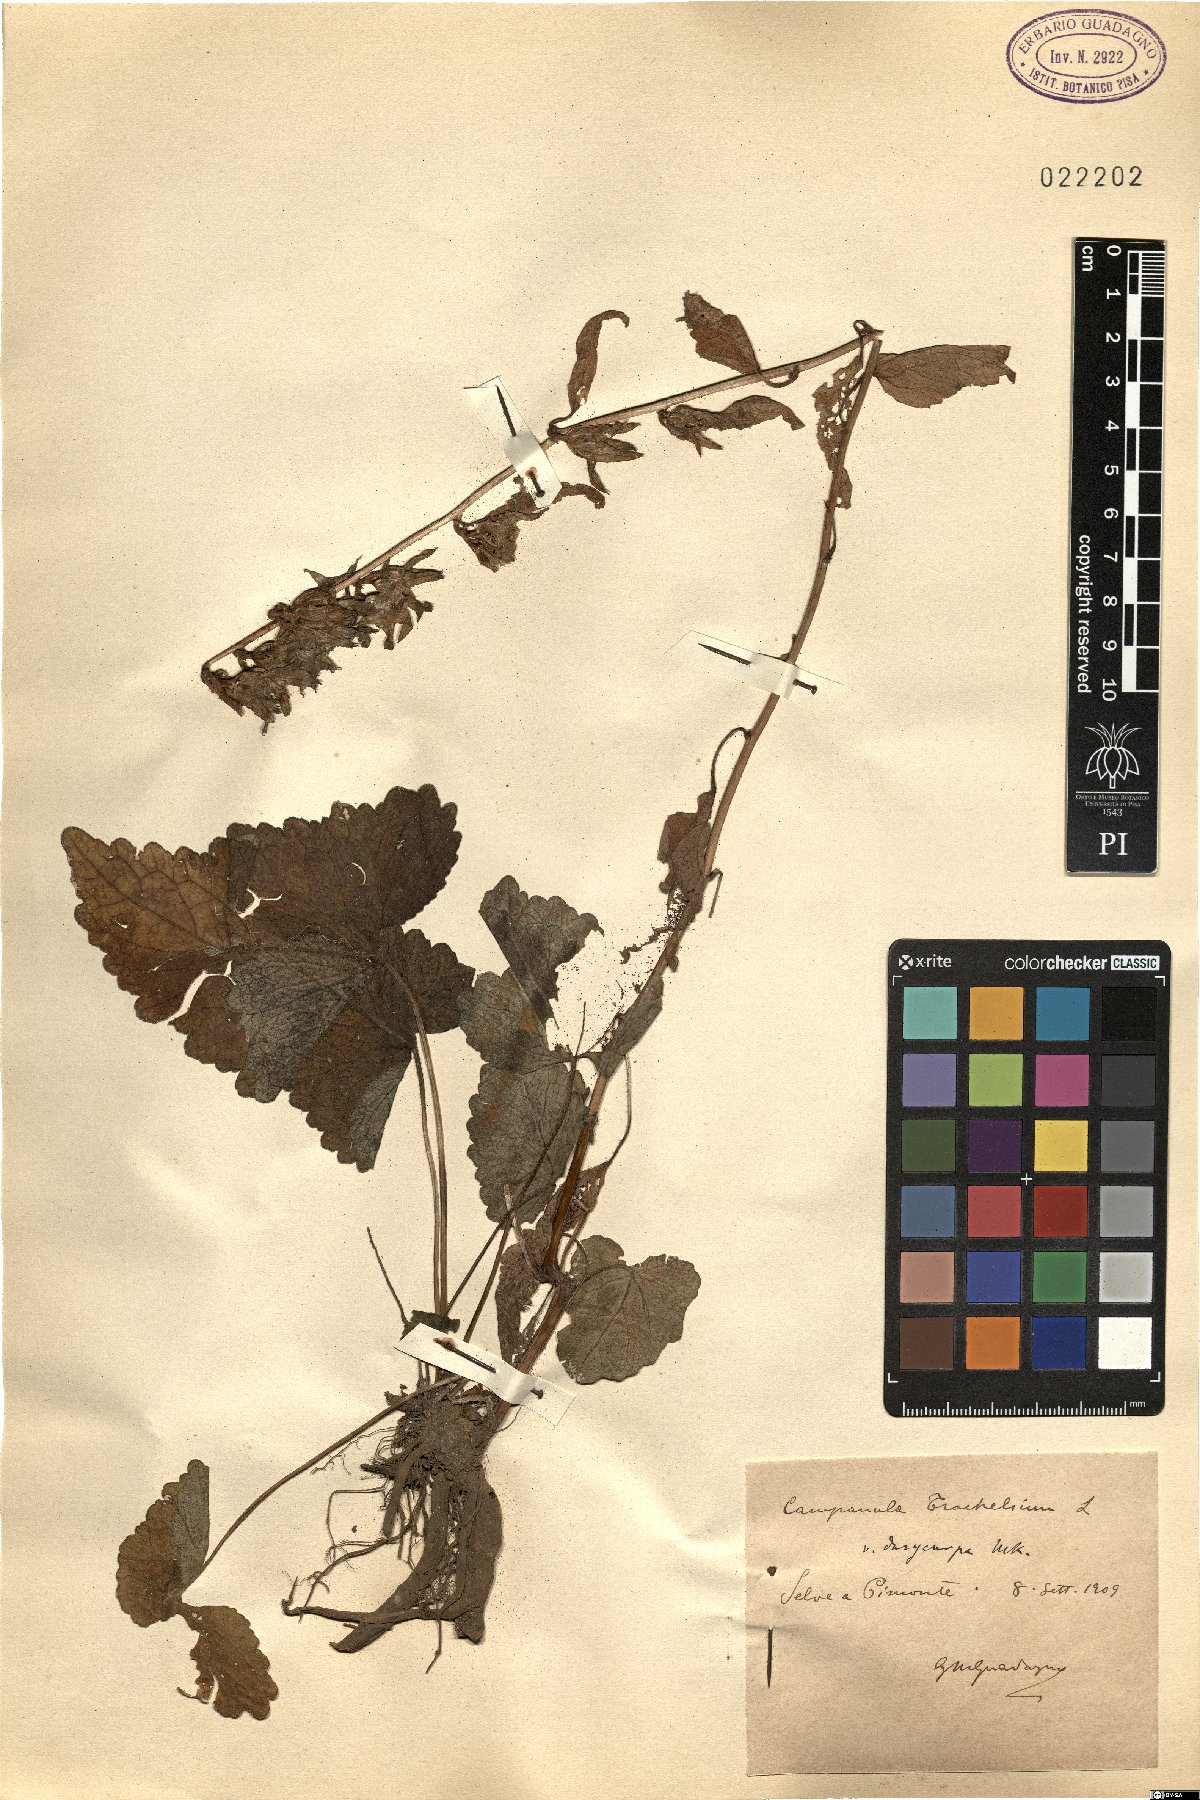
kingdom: Plantae
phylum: Tracheophyta
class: Magnoliopsida
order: Asterales
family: Campanulaceae
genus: Campanula
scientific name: Campanula trachelium
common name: Nettle-leaved bellflower
